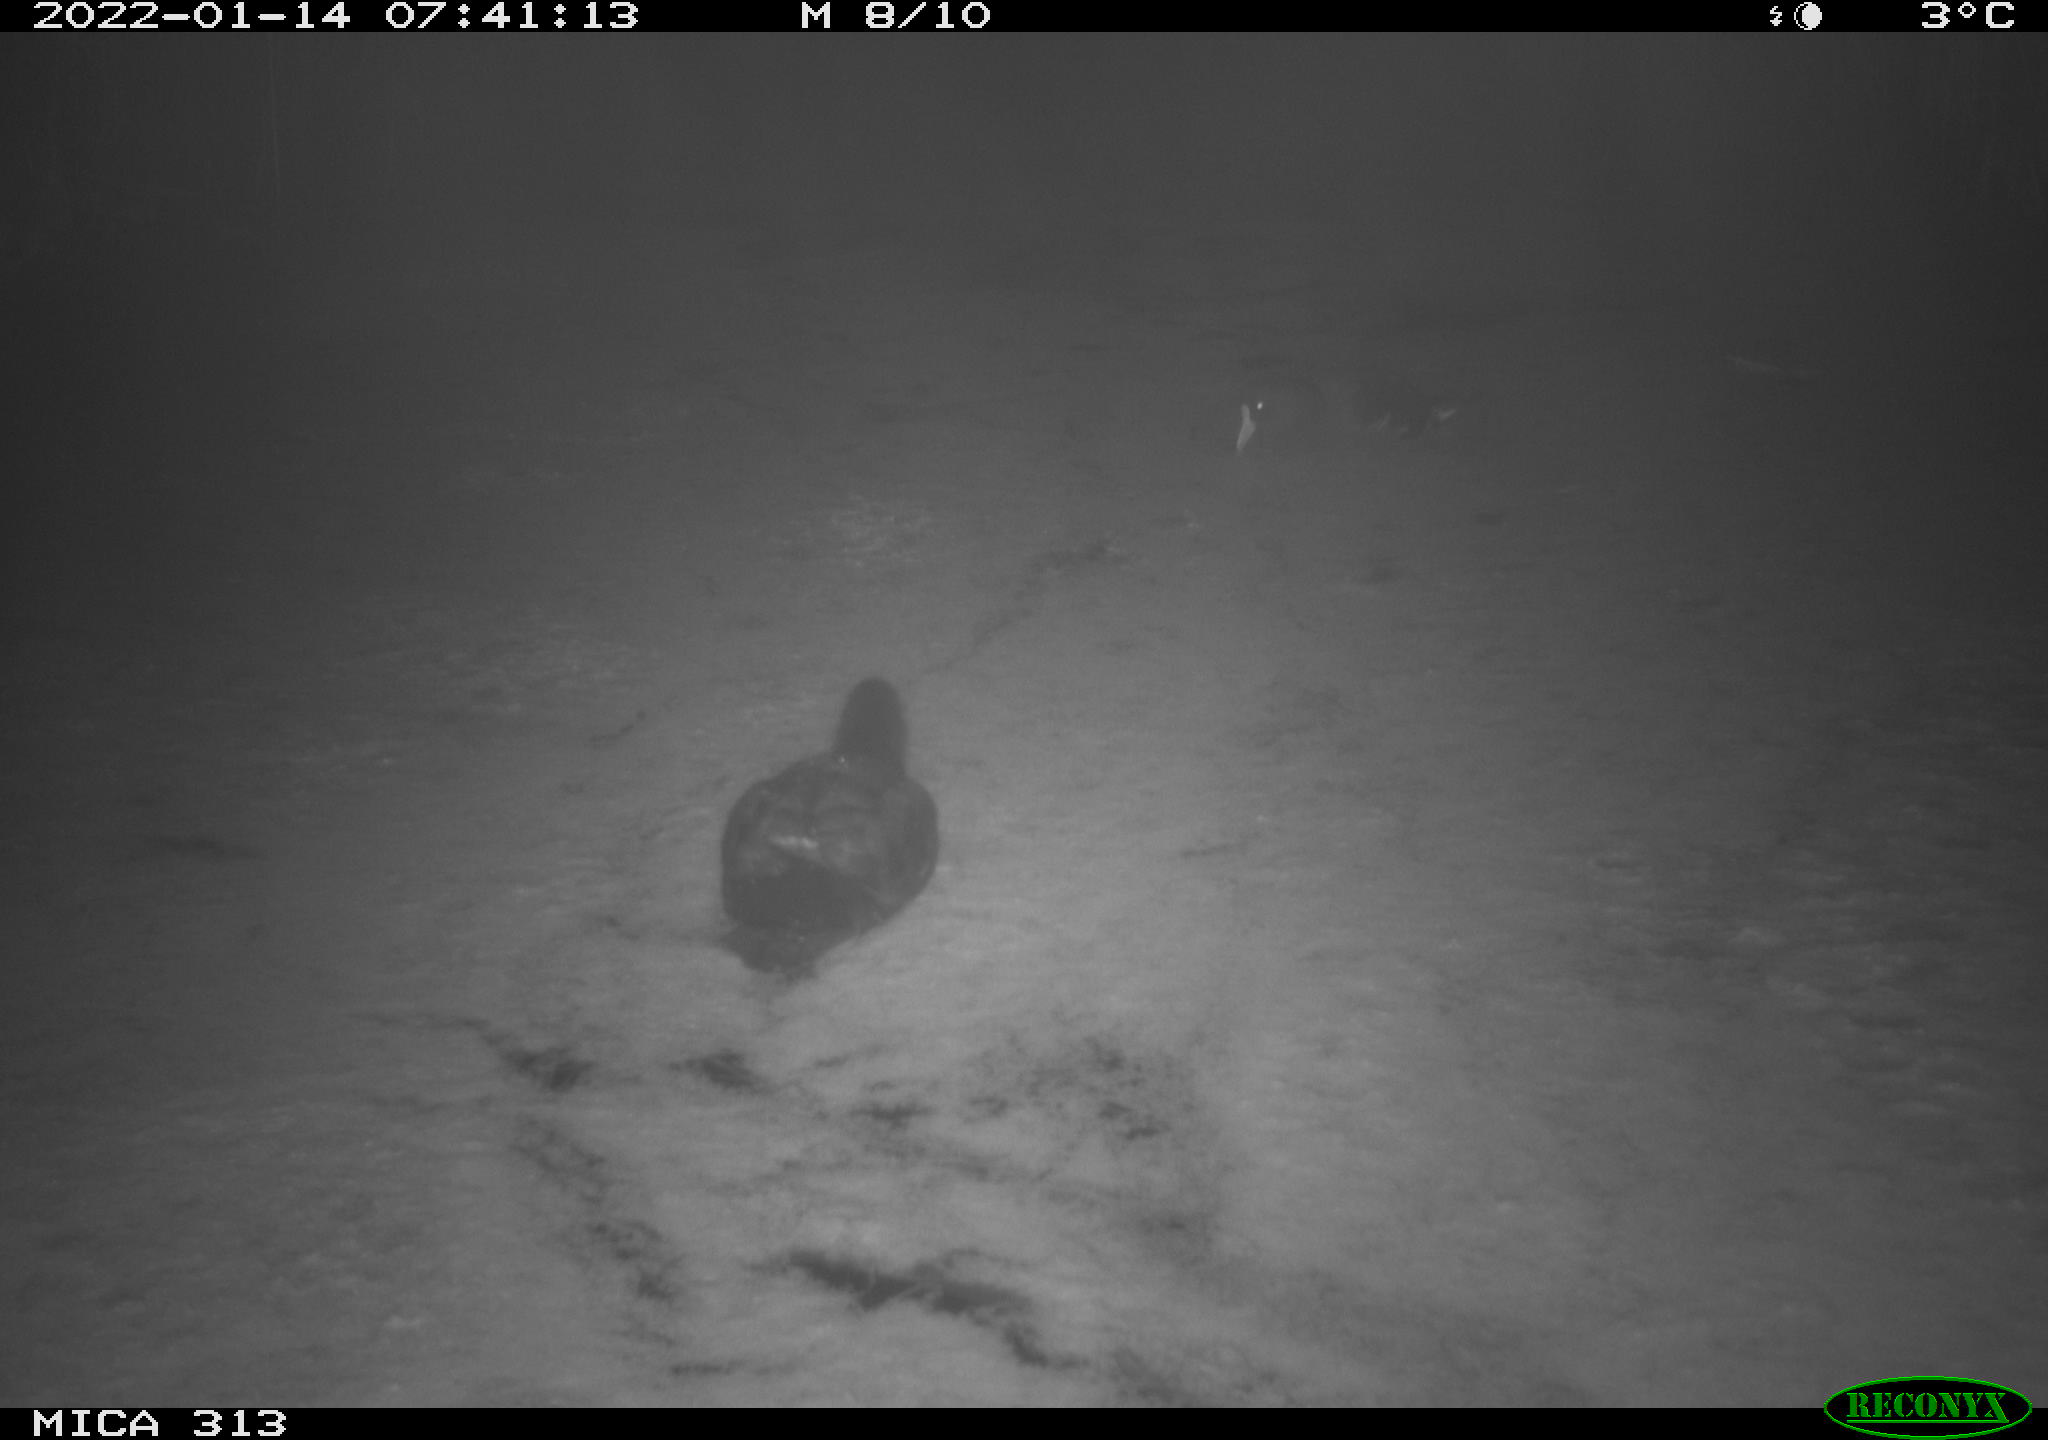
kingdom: Animalia
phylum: Chordata
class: Aves
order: Gruiformes
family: Rallidae
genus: Gallinula
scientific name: Gallinula chloropus
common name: Common moorhen
